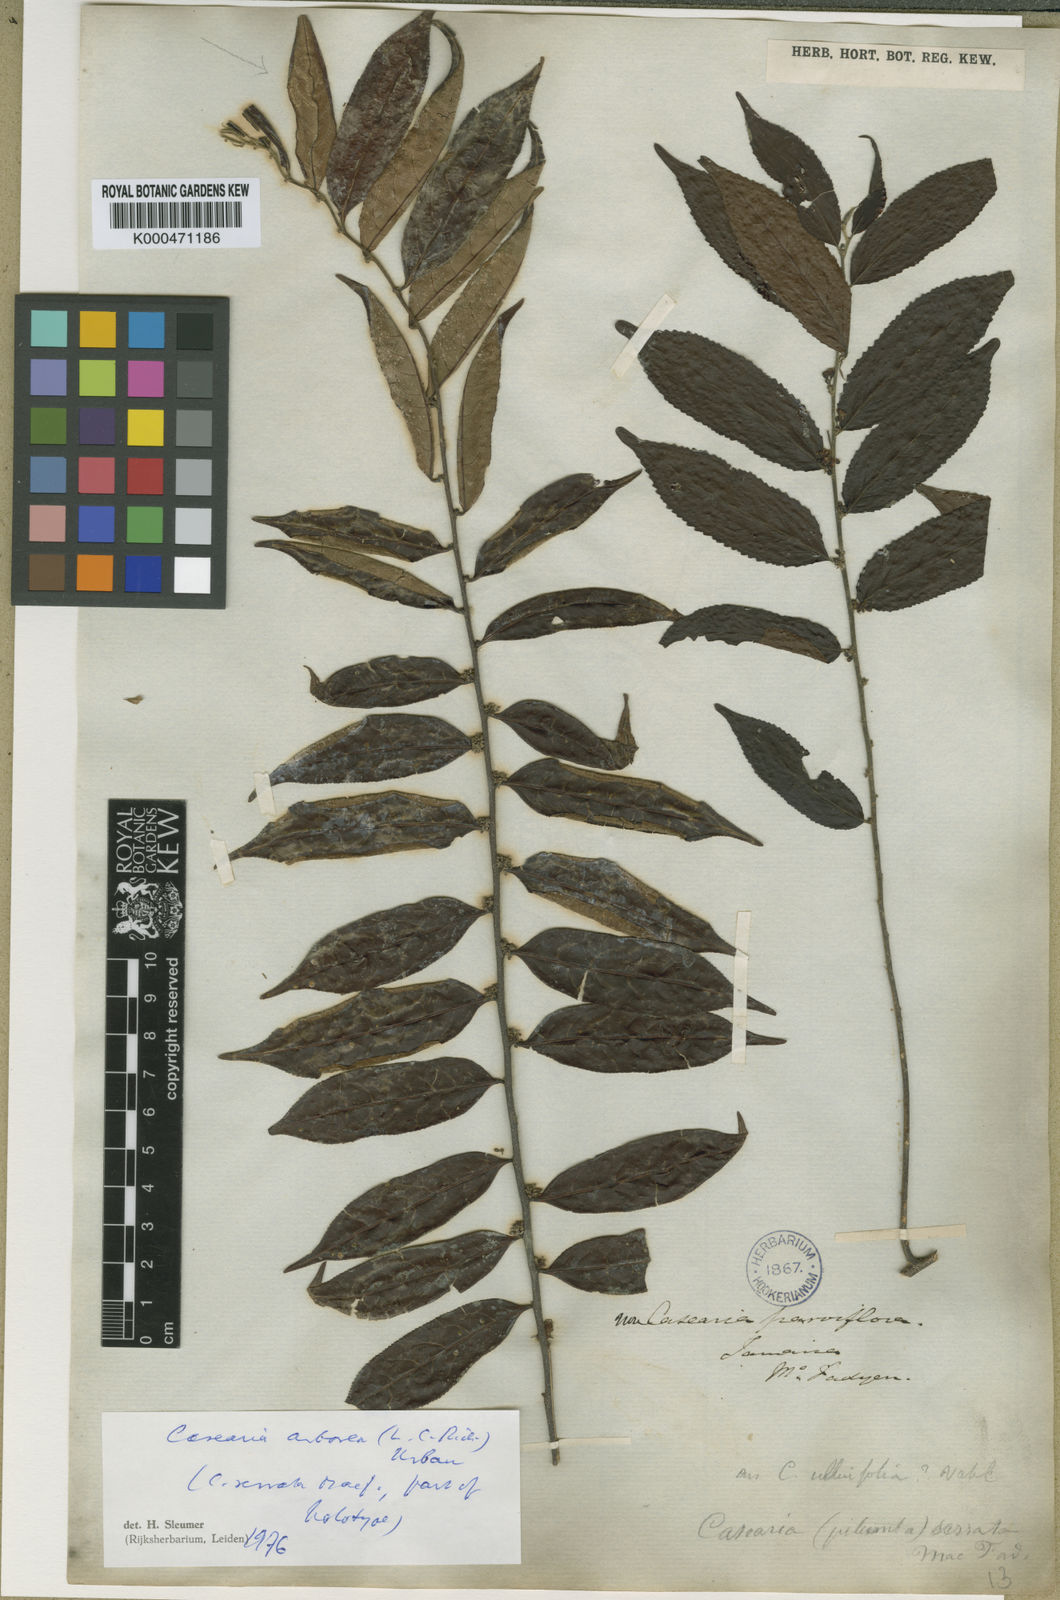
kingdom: Plantae
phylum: Tracheophyta
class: Magnoliopsida
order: Malpighiales
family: Salicaceae
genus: Casearia
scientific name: Casearia arborea
